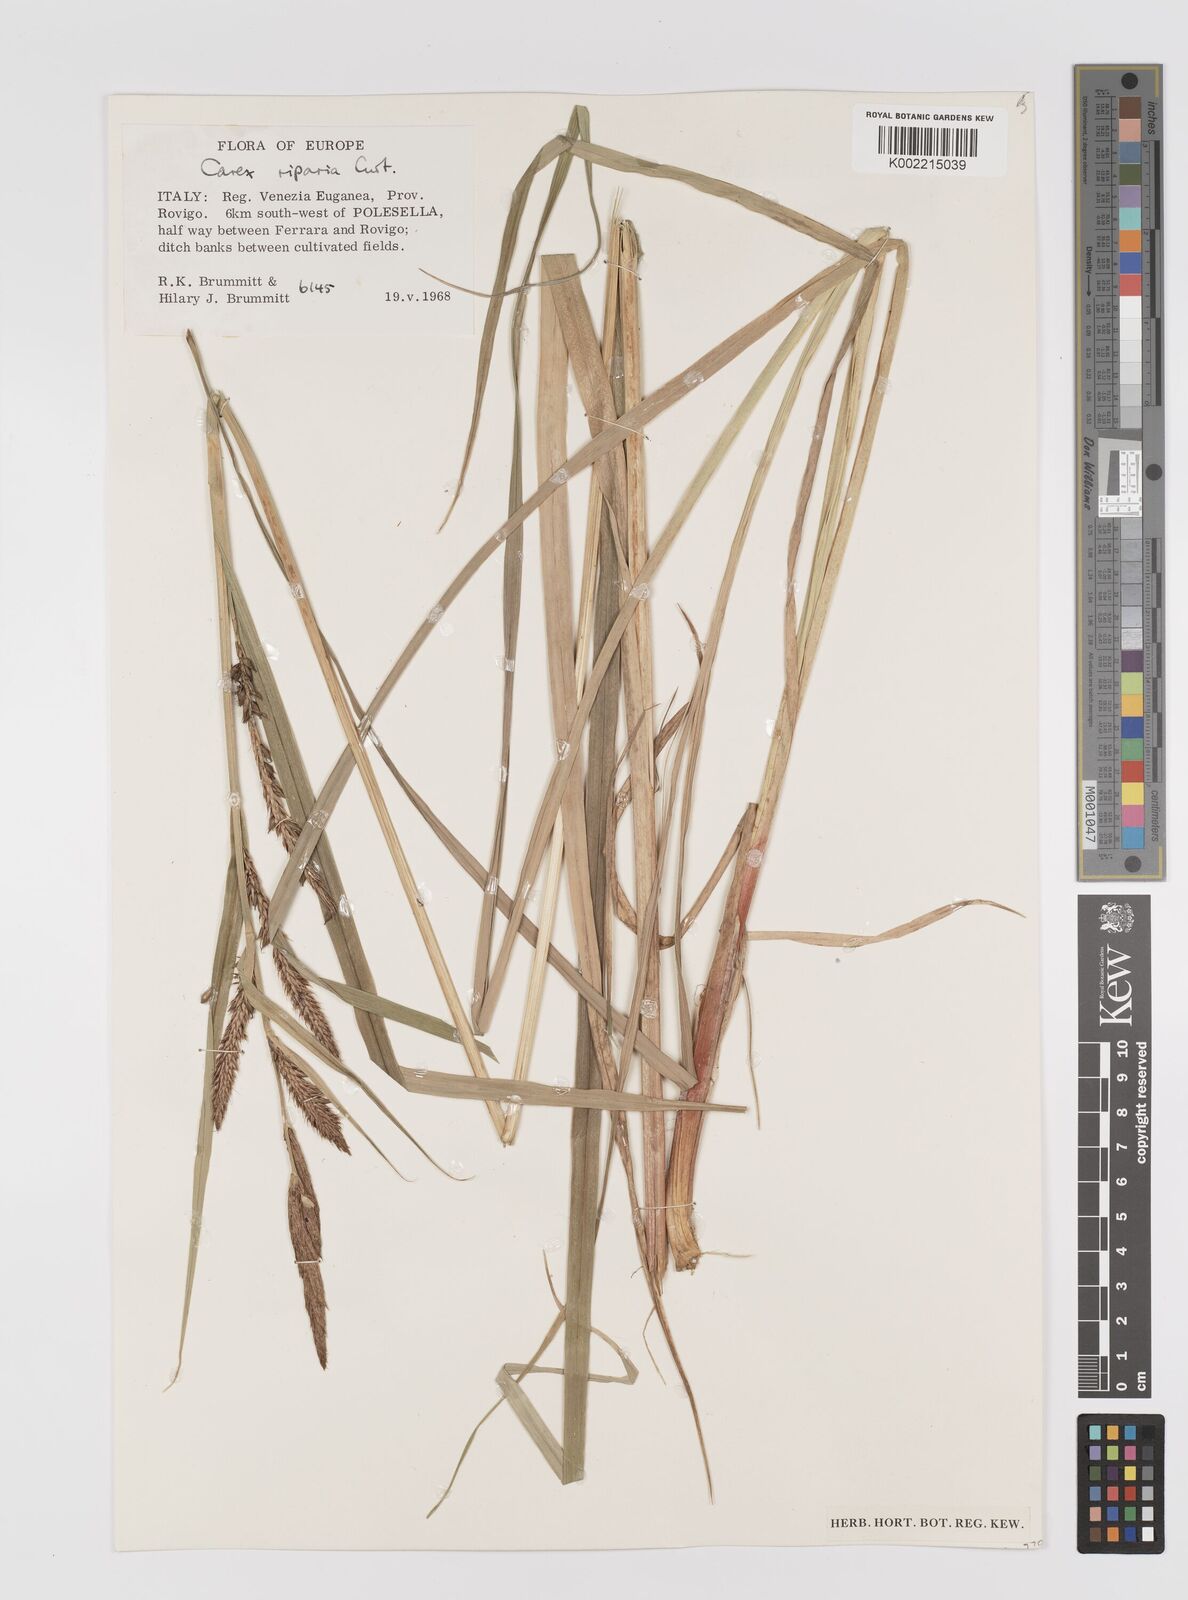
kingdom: Plantae
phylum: Tracheophyta
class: Liliopsida
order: Poales
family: Cyperaceae
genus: Carex
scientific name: Carex riparia
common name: Greater pond-sedge
